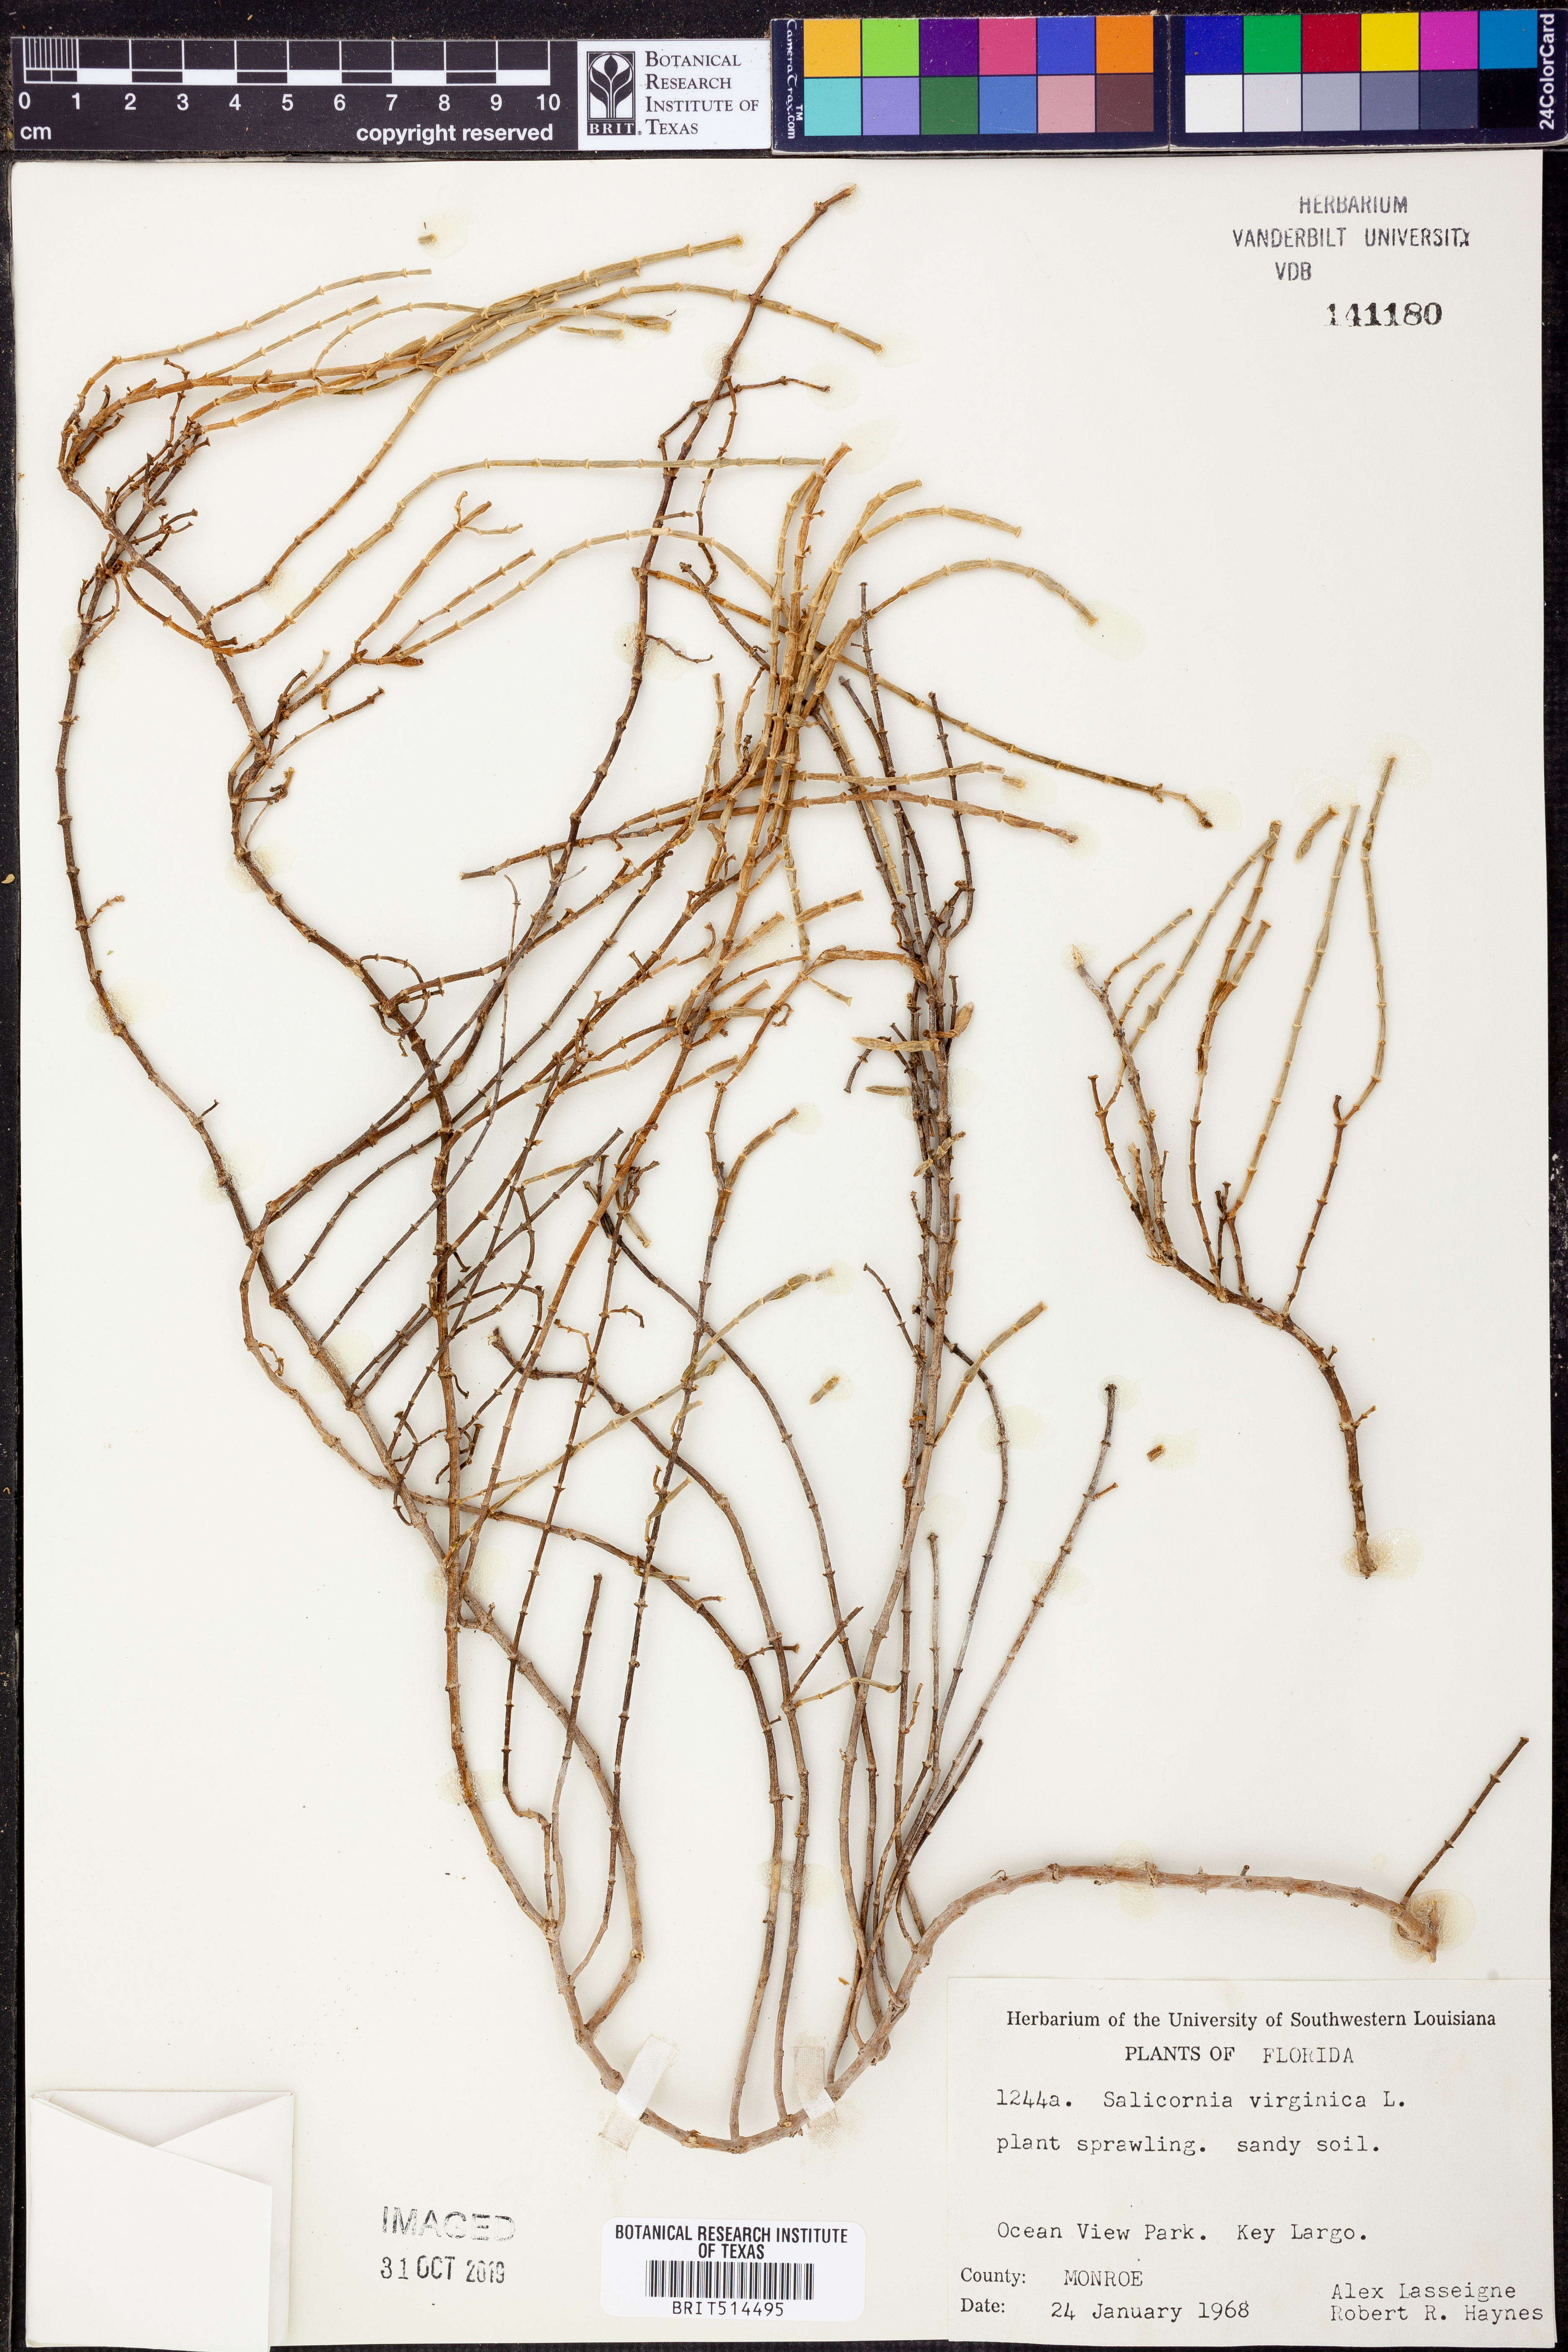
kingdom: Plantae
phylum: Tracheophyta
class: Magnoliopsida
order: Caryophyllales
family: Amaranthaceae
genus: Salicornia
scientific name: Salicornia virginica
